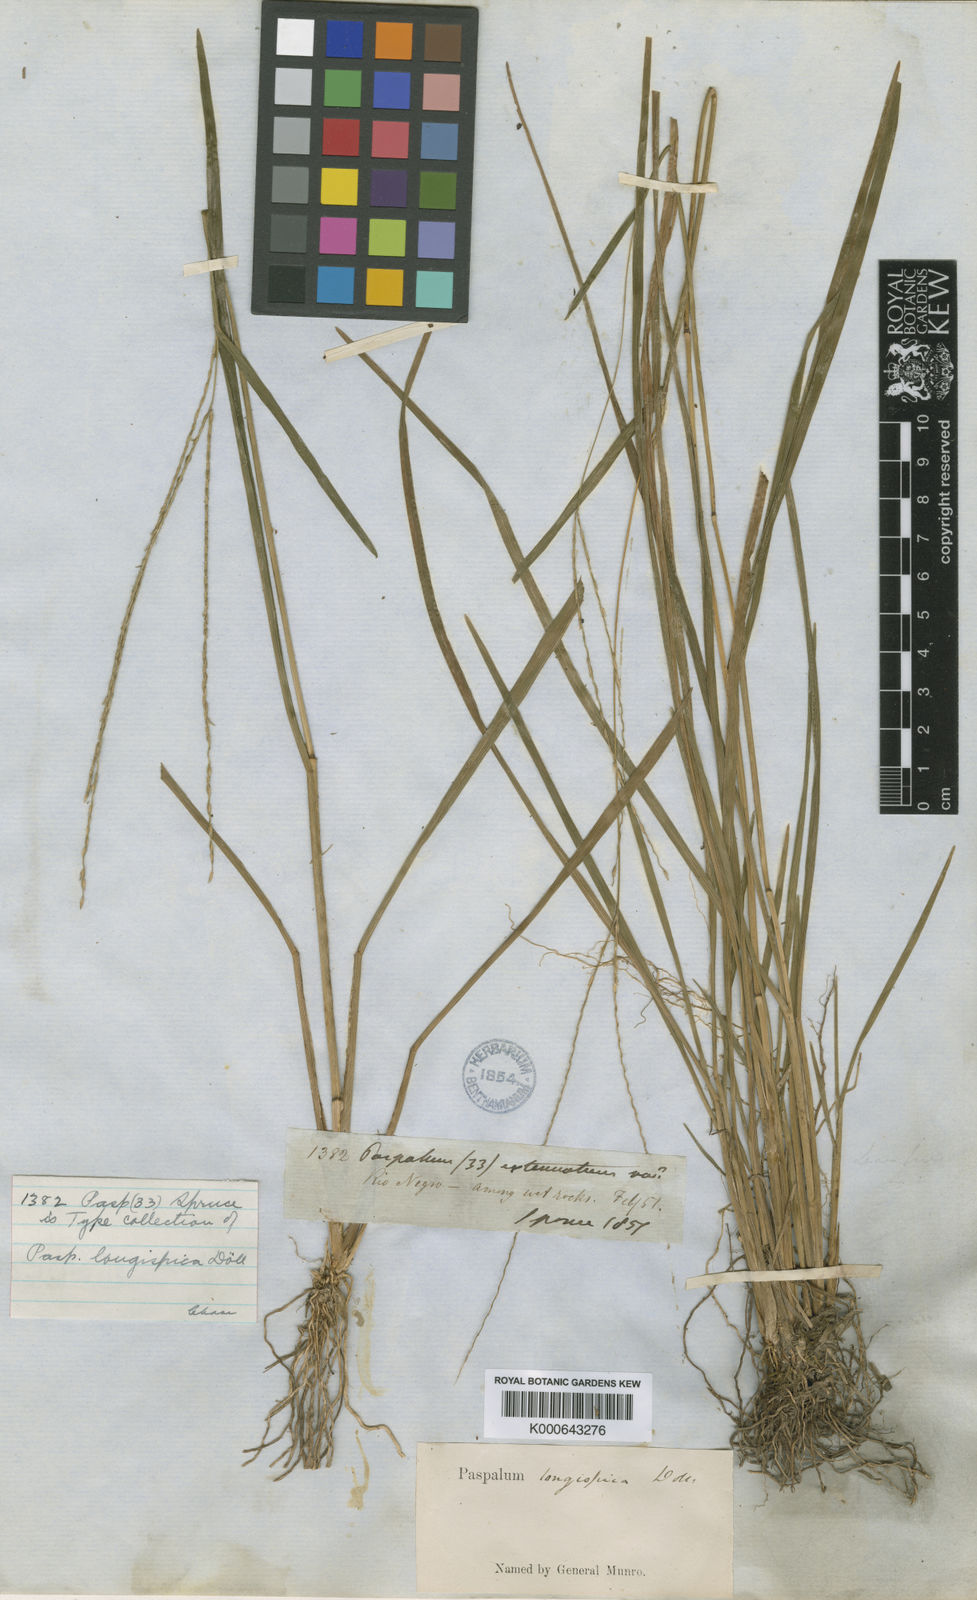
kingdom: Plantae
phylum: Tracheophyta
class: Liliopsida
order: Poales
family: Poaceae
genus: Axonopus
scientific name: Axonopus
